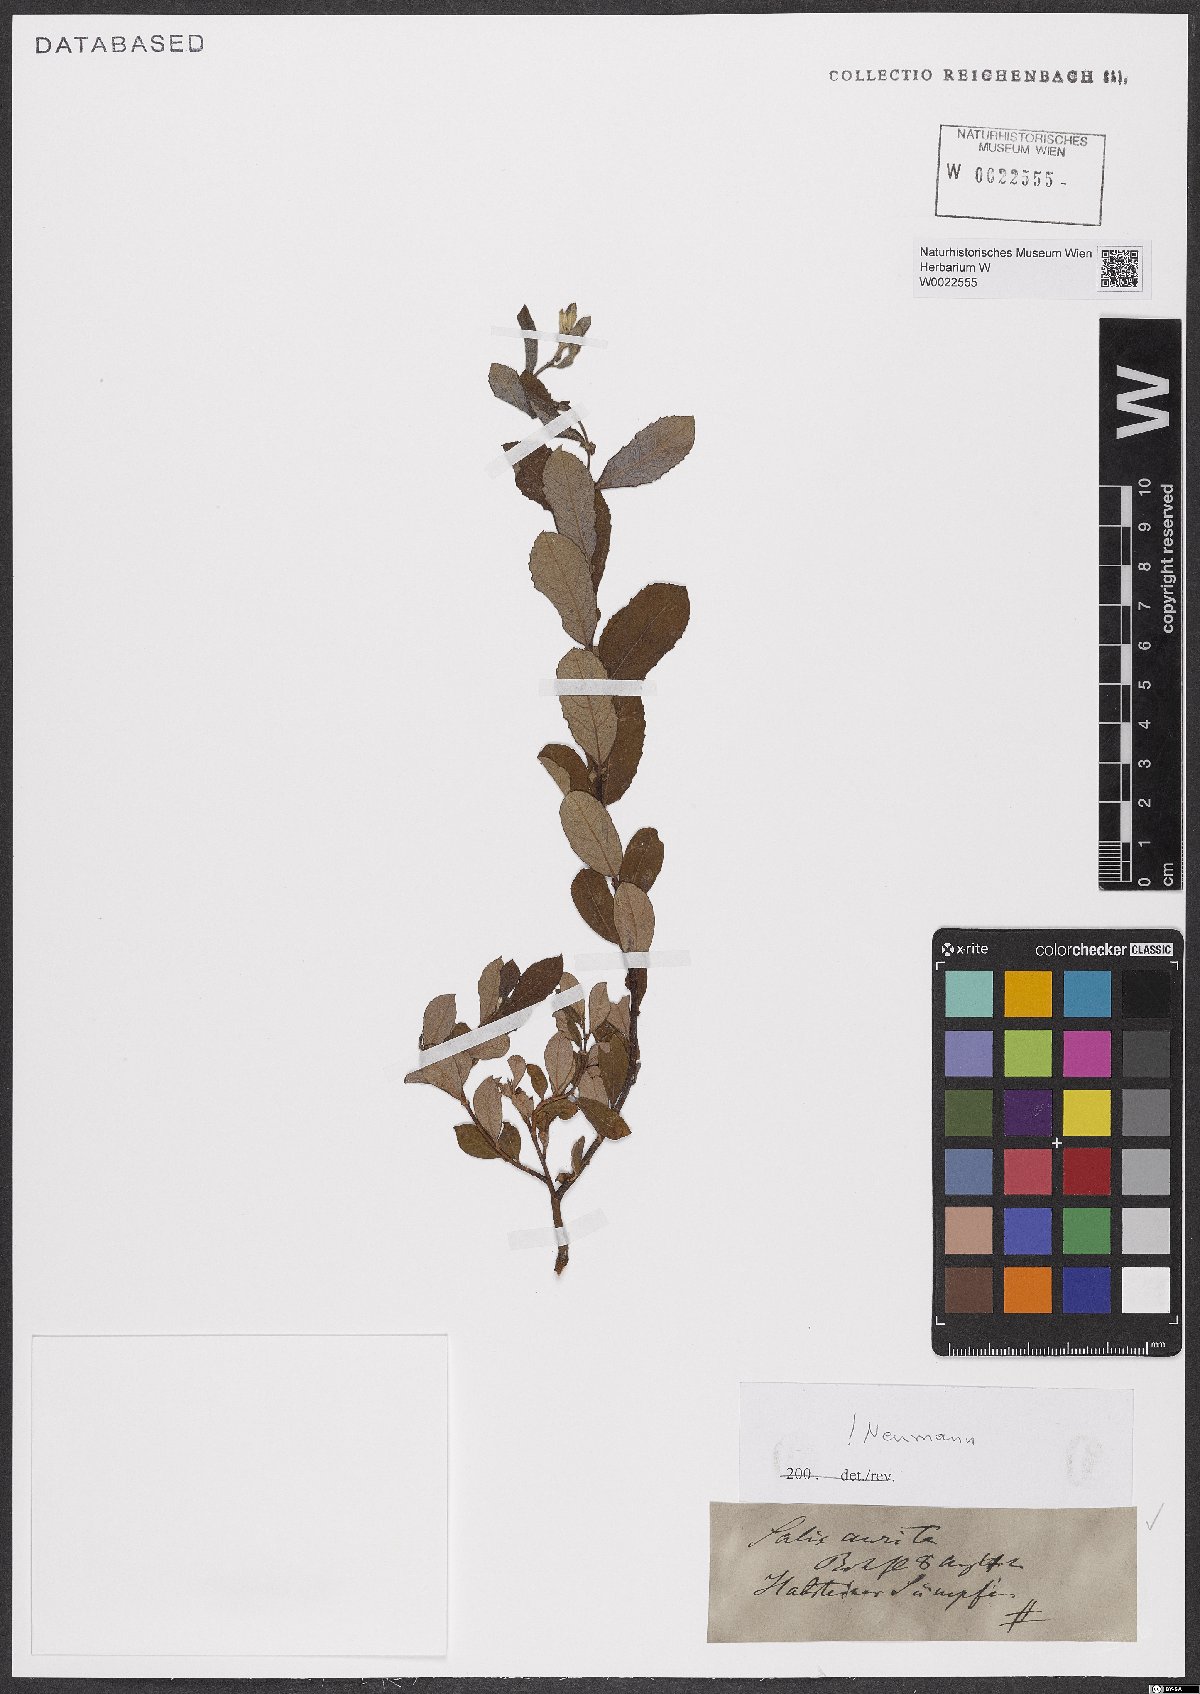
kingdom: Plantae
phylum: Tracheophyta
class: Magnoliopsida
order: Malpighiales
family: Salicaceae
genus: Salix
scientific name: Salix aurita
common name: Eared willow
